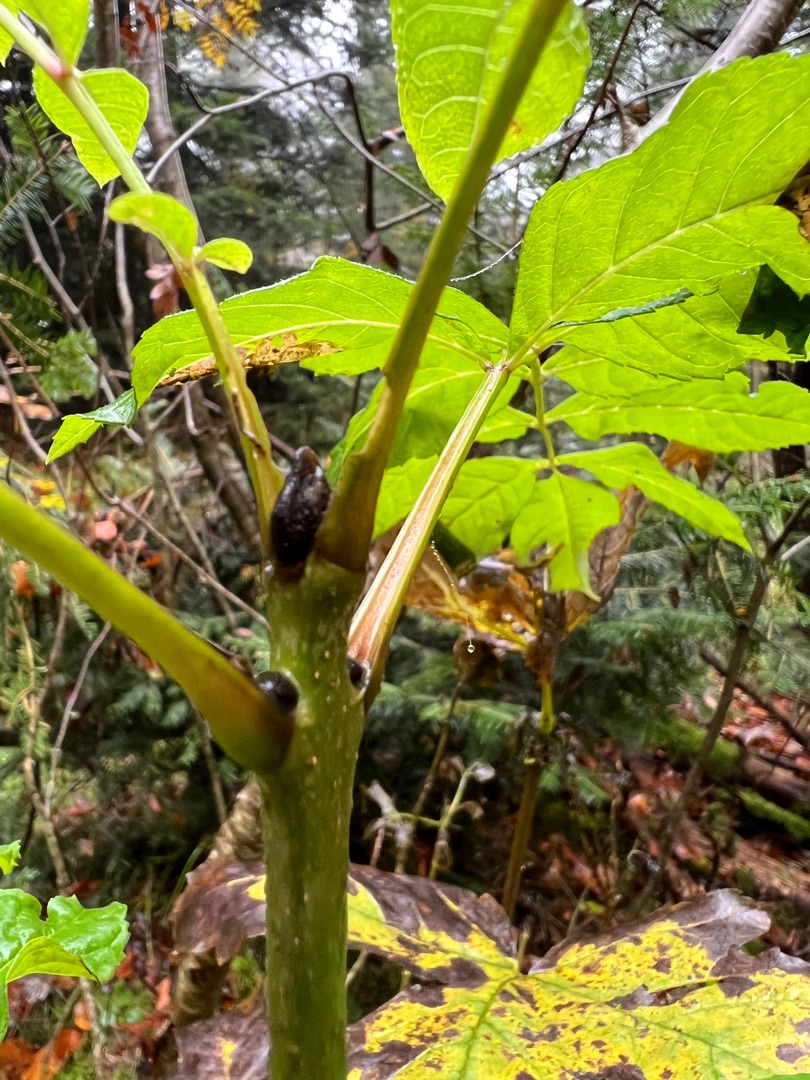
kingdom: Plantae
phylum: Tracheophyta
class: Magnoliopsida
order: Lamiales
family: Oleaceae
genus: Fraxinus
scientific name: Fraxinus excelsior
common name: Ask
